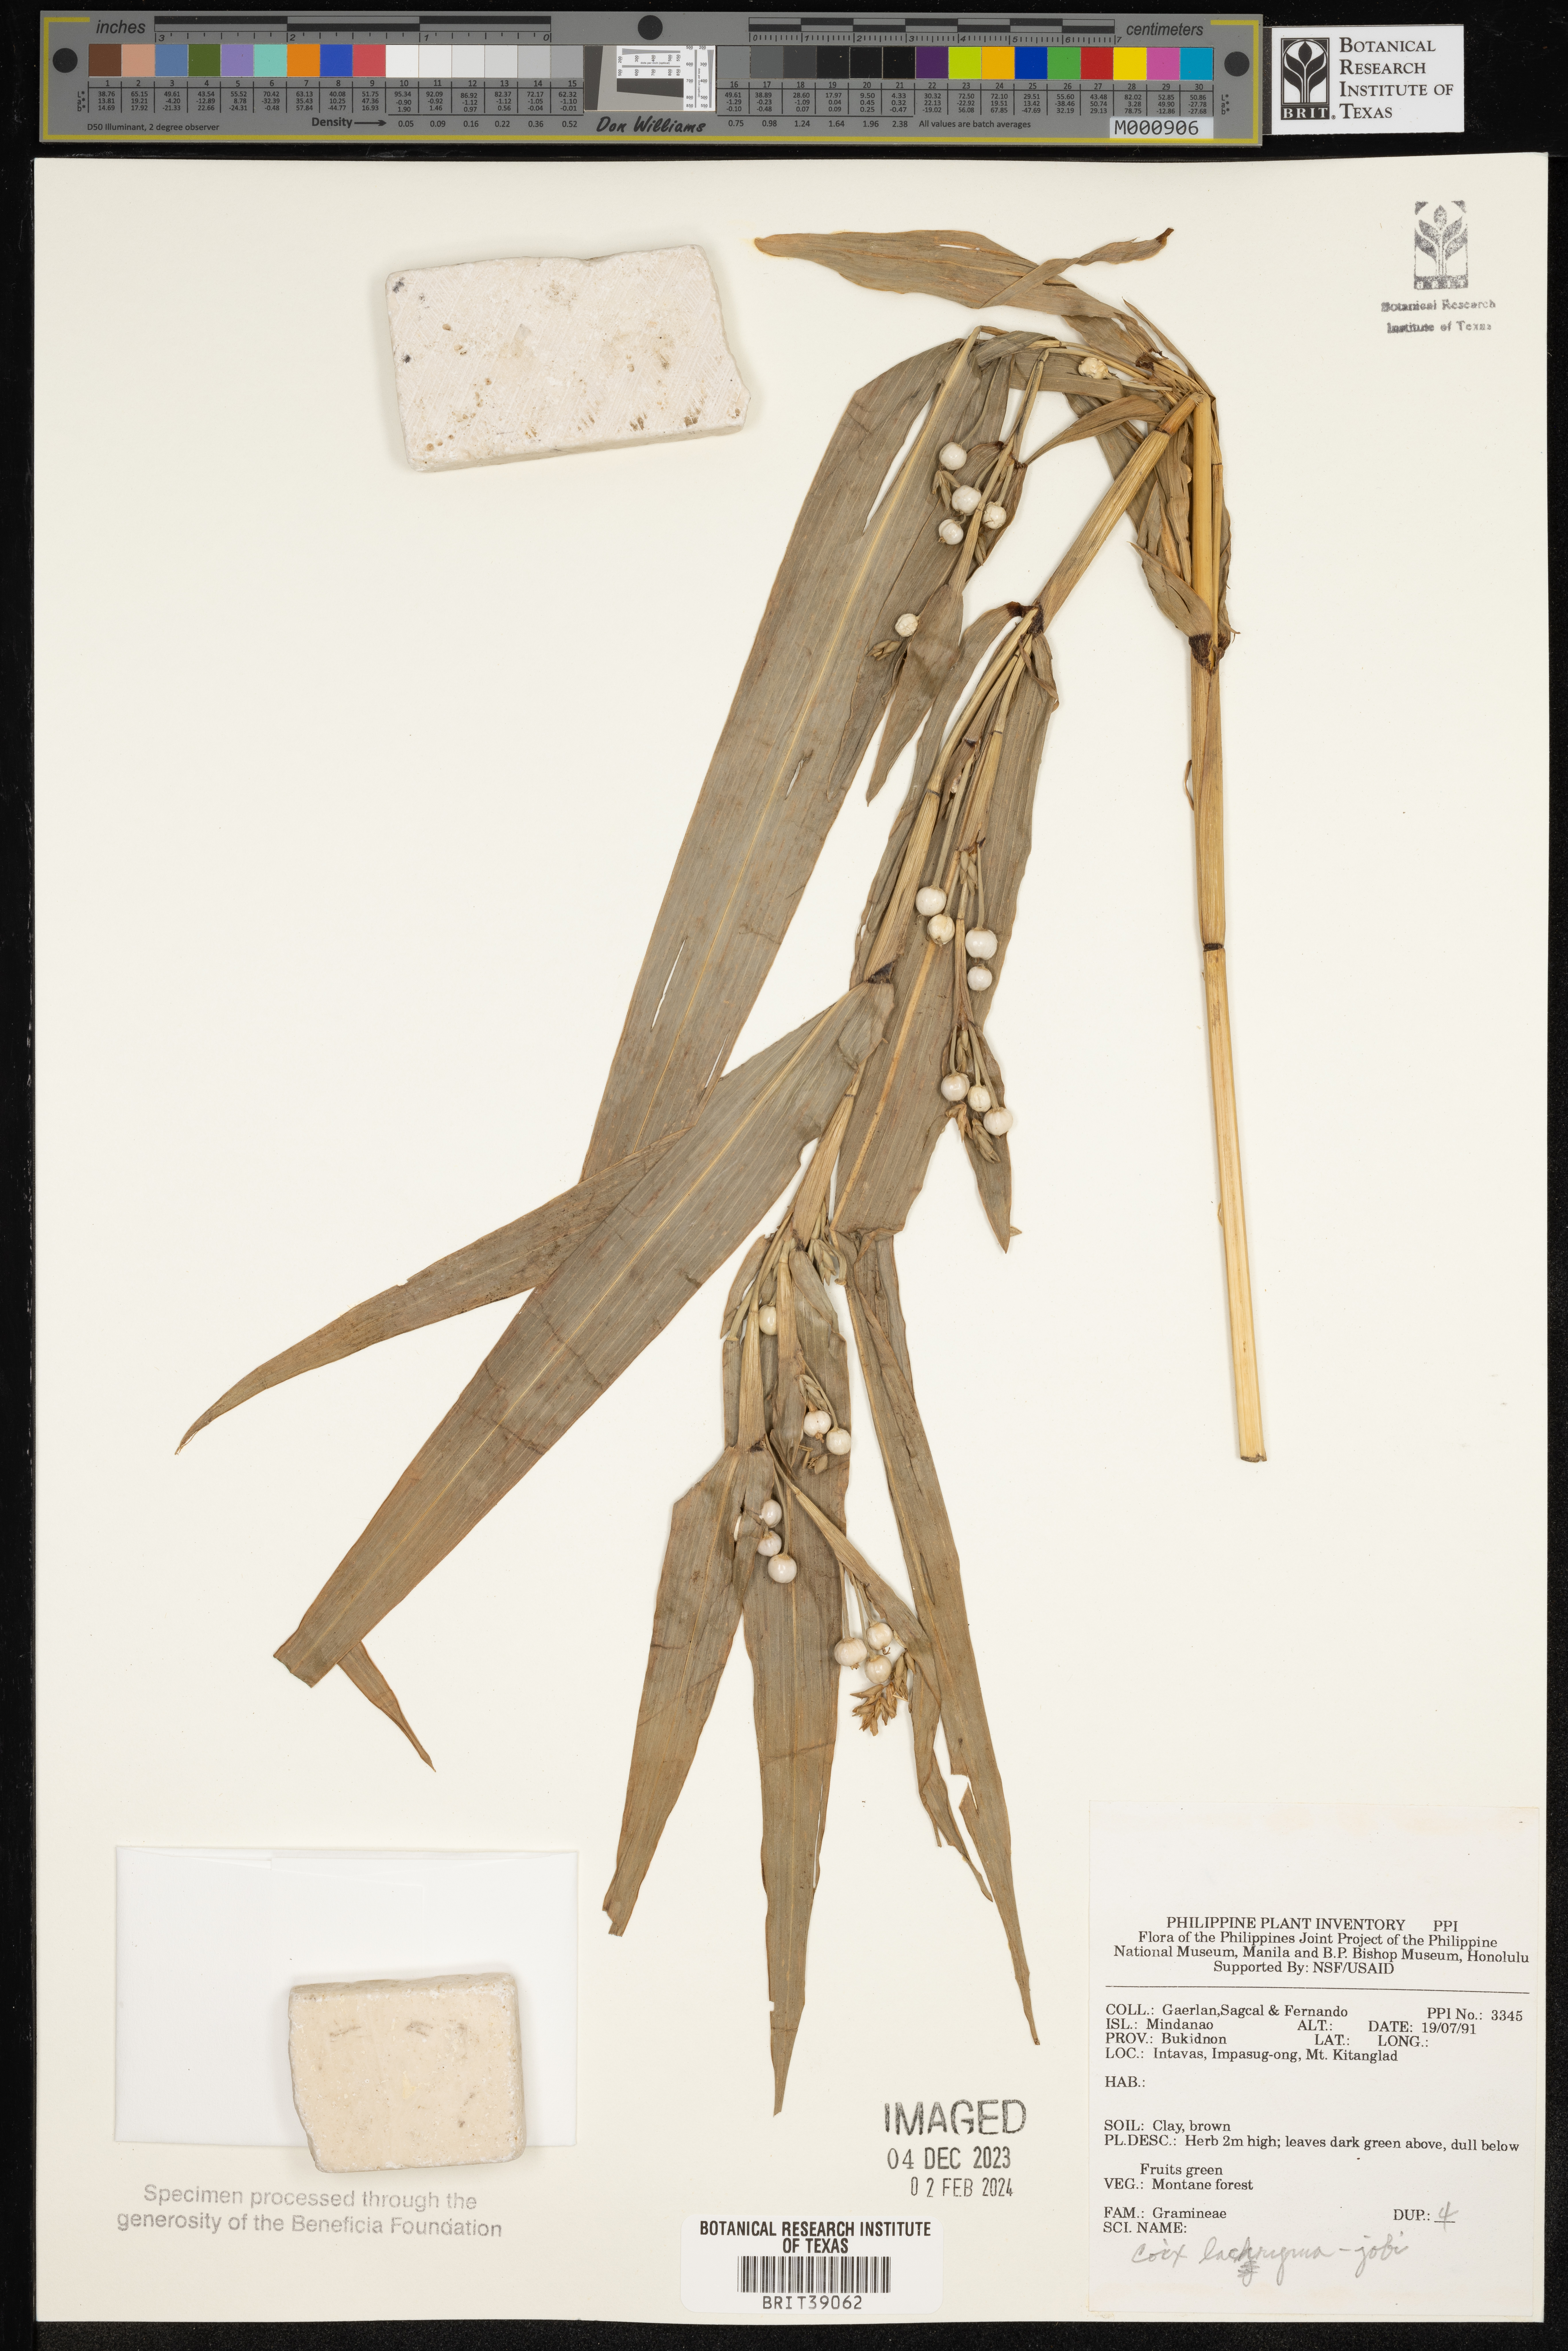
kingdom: Plantae
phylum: Tracheophyta
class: Liliopsida
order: Poales
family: Poaceae
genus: Coix
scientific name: Coix lacryma-jobi
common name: Job's tears
